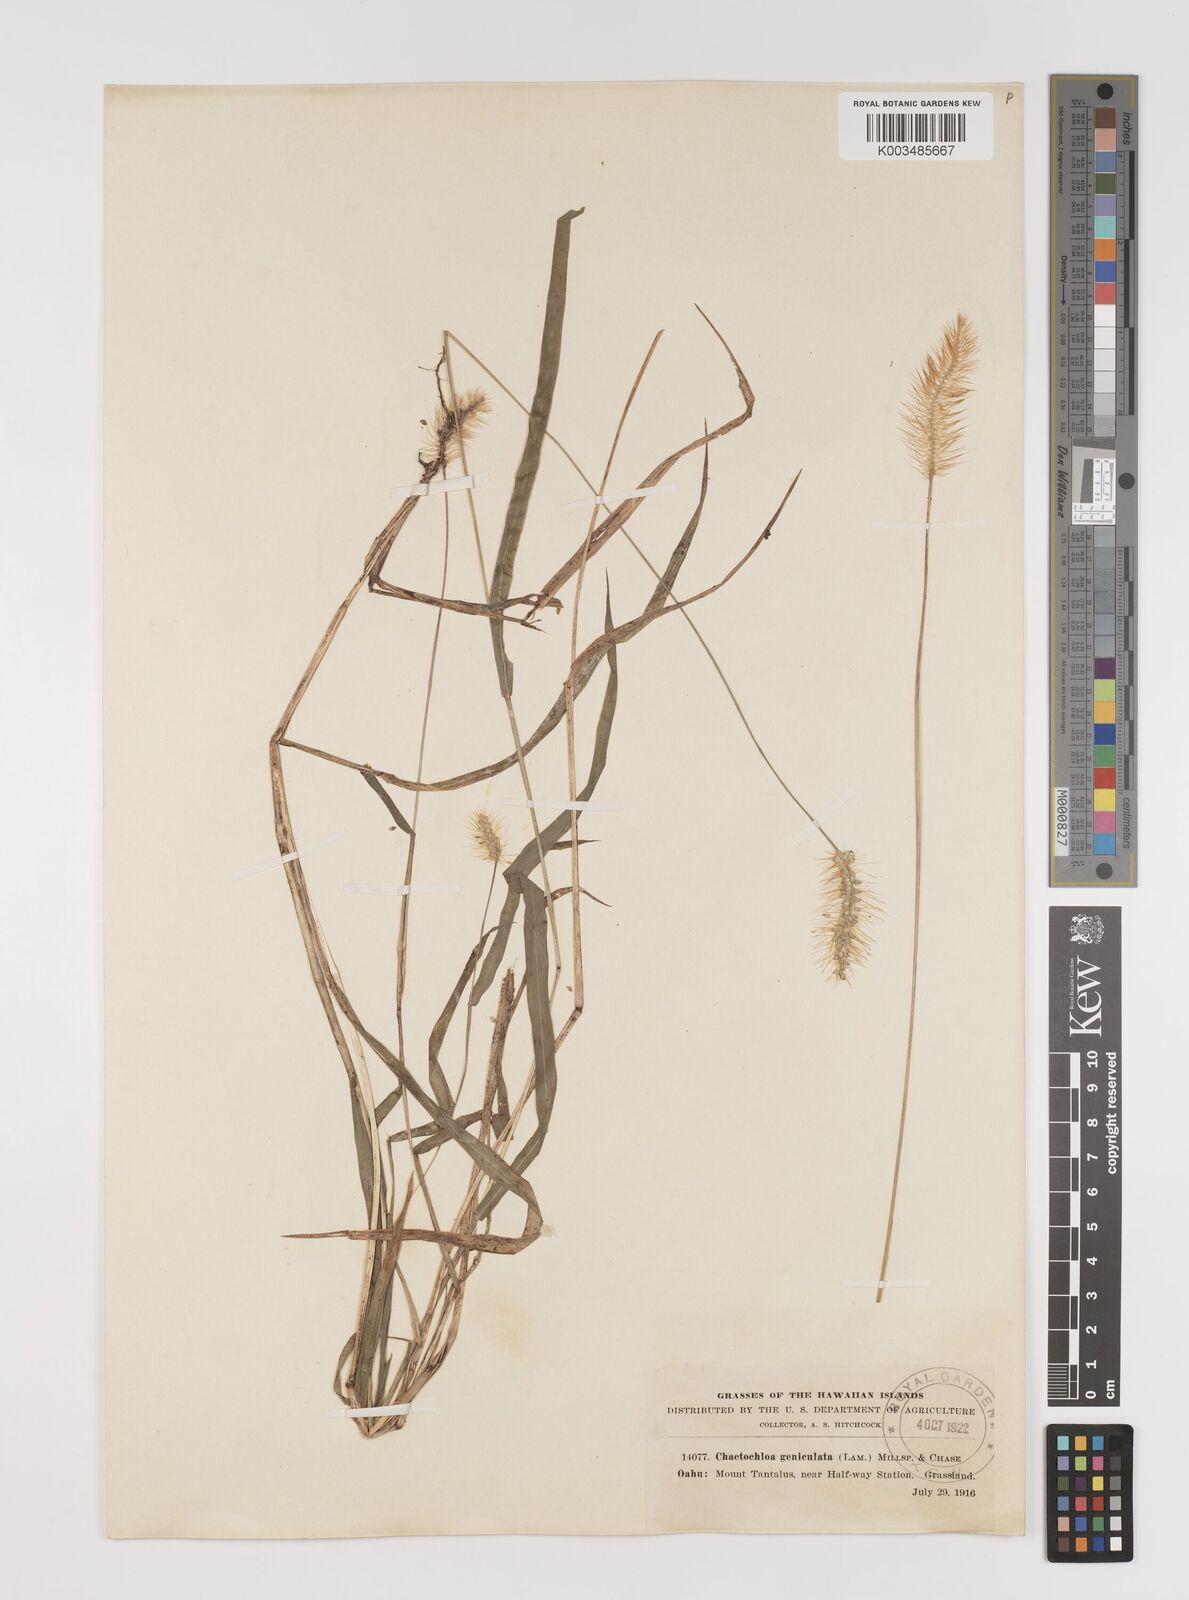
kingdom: Plantae
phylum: Tracheophyta
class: Liliopsida
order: Poales
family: Poaceae
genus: Setaria
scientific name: Setaria parviflora
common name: Knotroot bristle-grass
